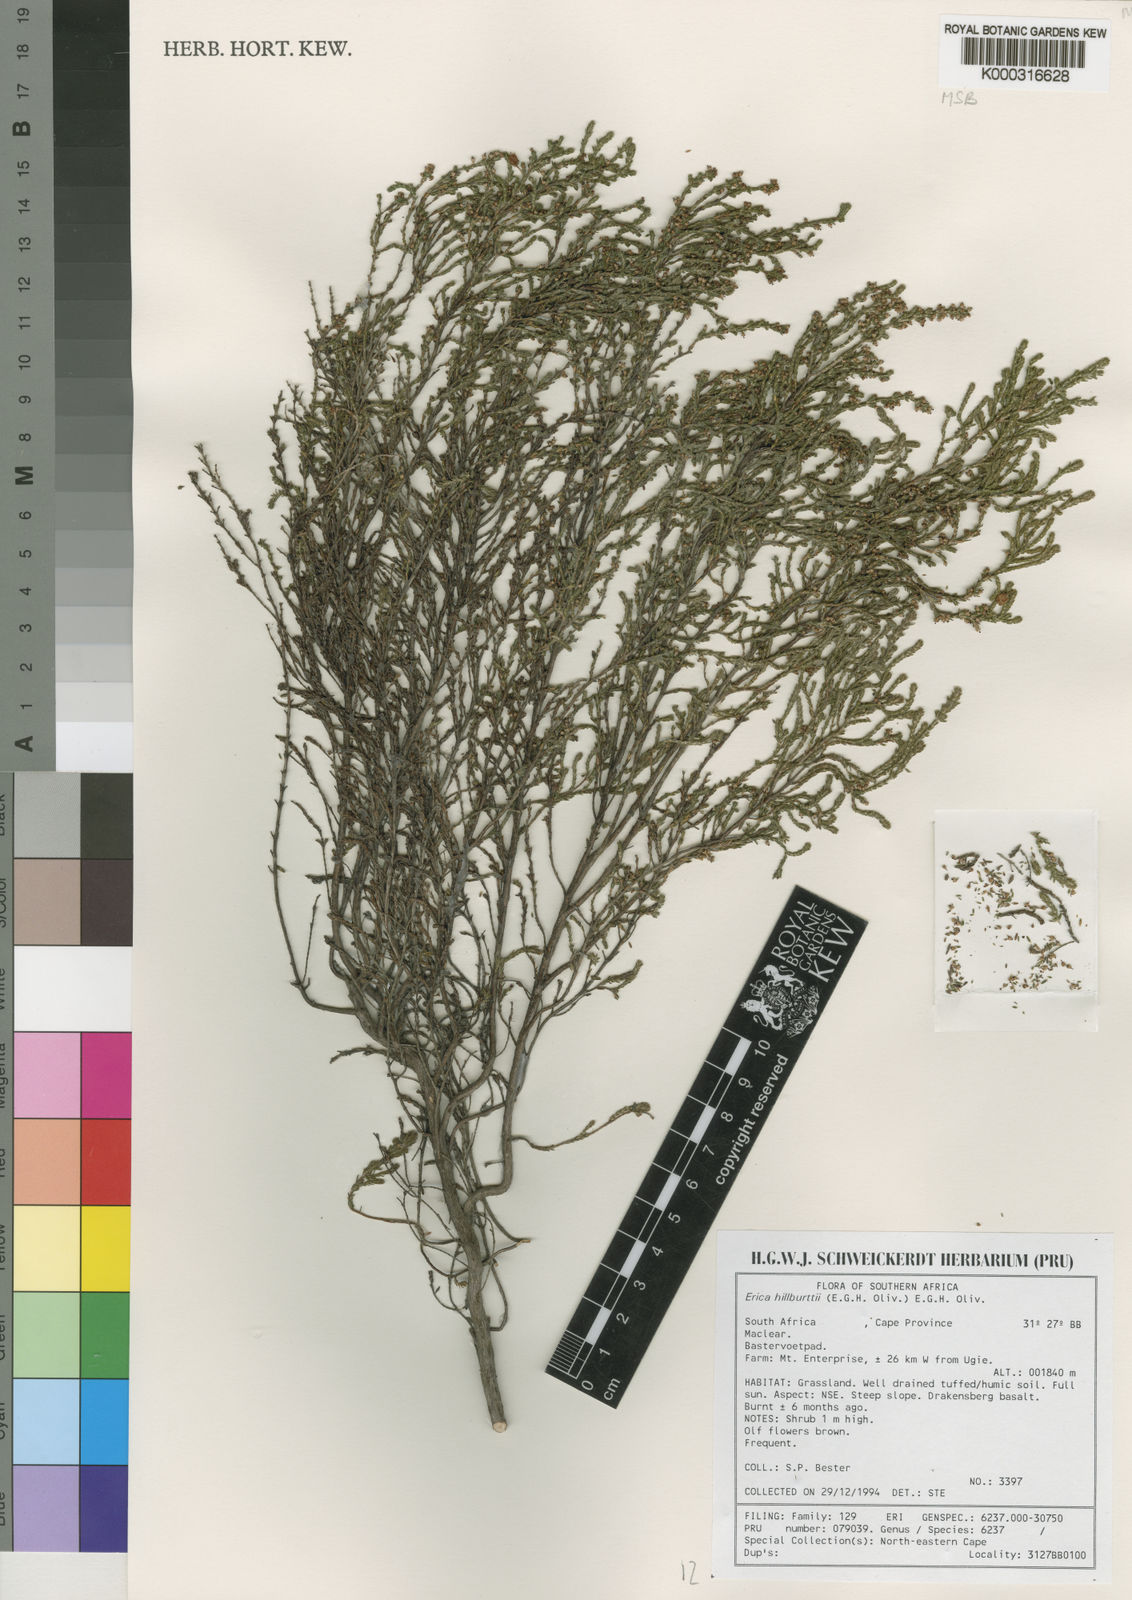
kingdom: Plantae
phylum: Tracheophyta
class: Magnoliopsida
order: Ericales
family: Ericaceae
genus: Erica
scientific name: Erica hillburttii
